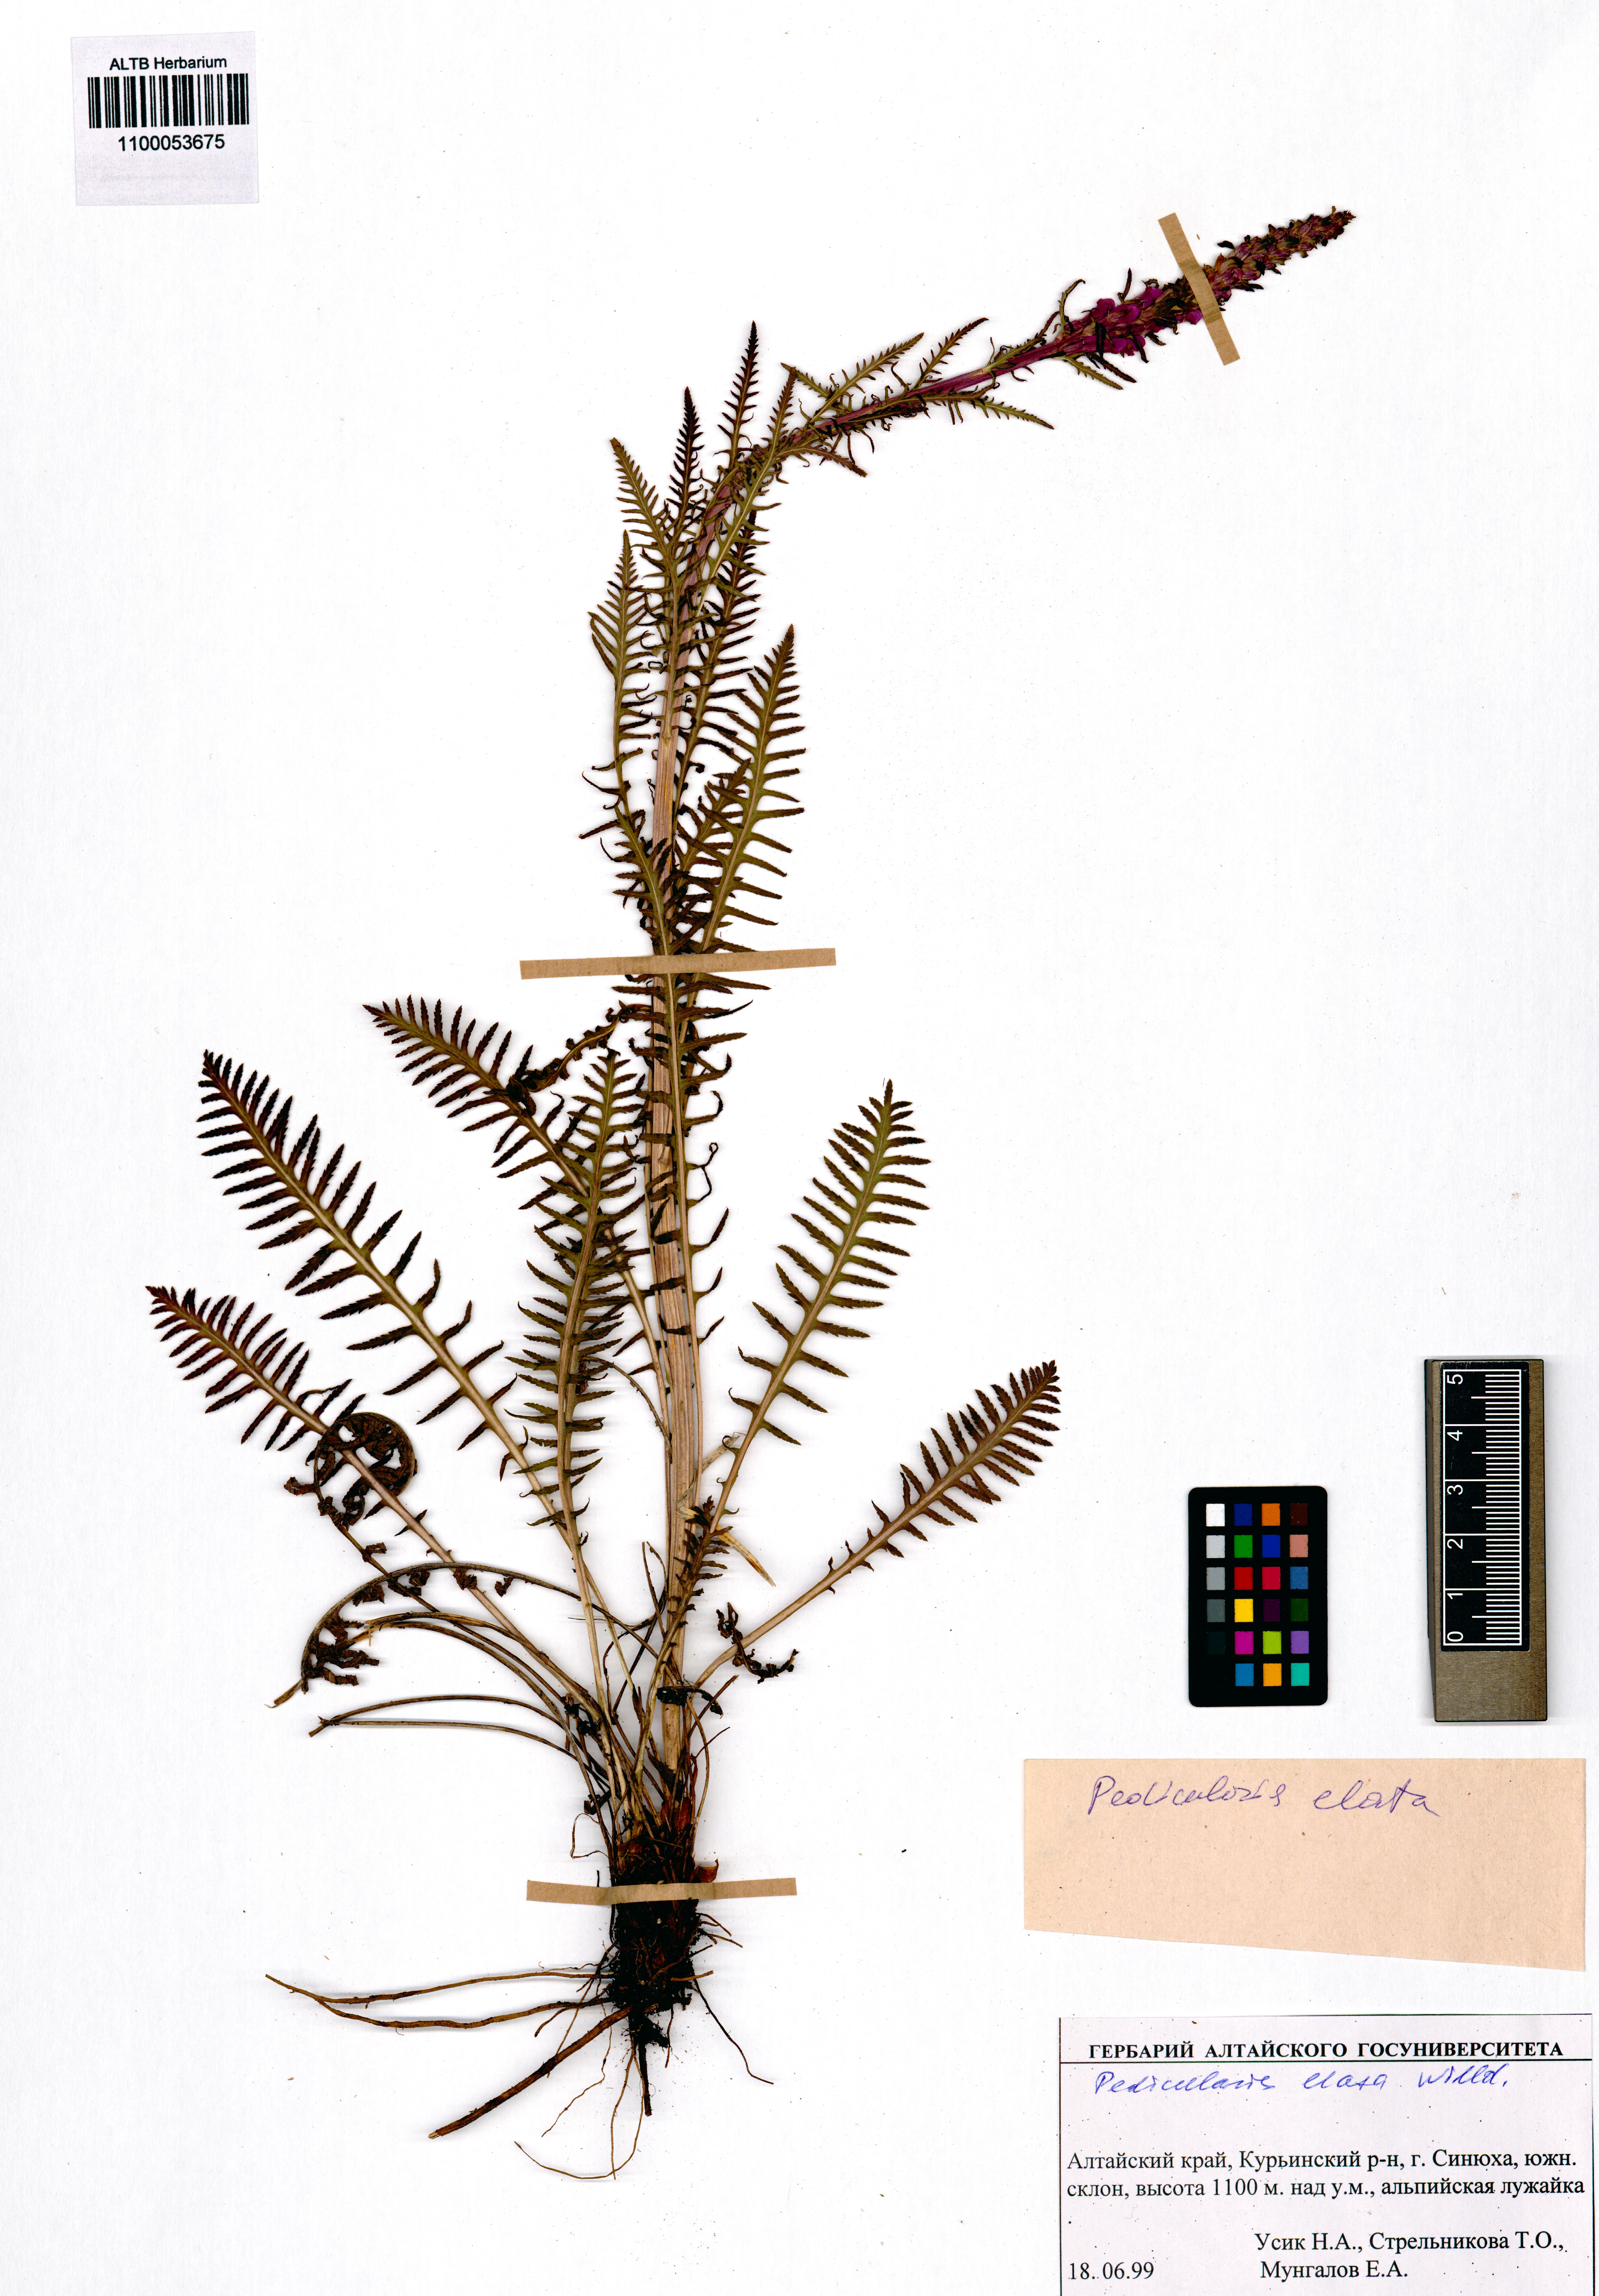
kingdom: Plantae
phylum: Tracheophyta
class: Magnoliopsida
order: Lamiales
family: Orobanchaceae
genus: Pedicularis
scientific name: Pedicularis elata
